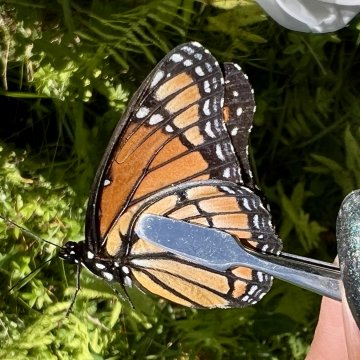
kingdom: Animalia
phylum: Arthropoda
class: Insecta
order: Lepidoptera
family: Nymphalidae
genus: Limenitis
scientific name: Limenitis archippus
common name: Viceroy
